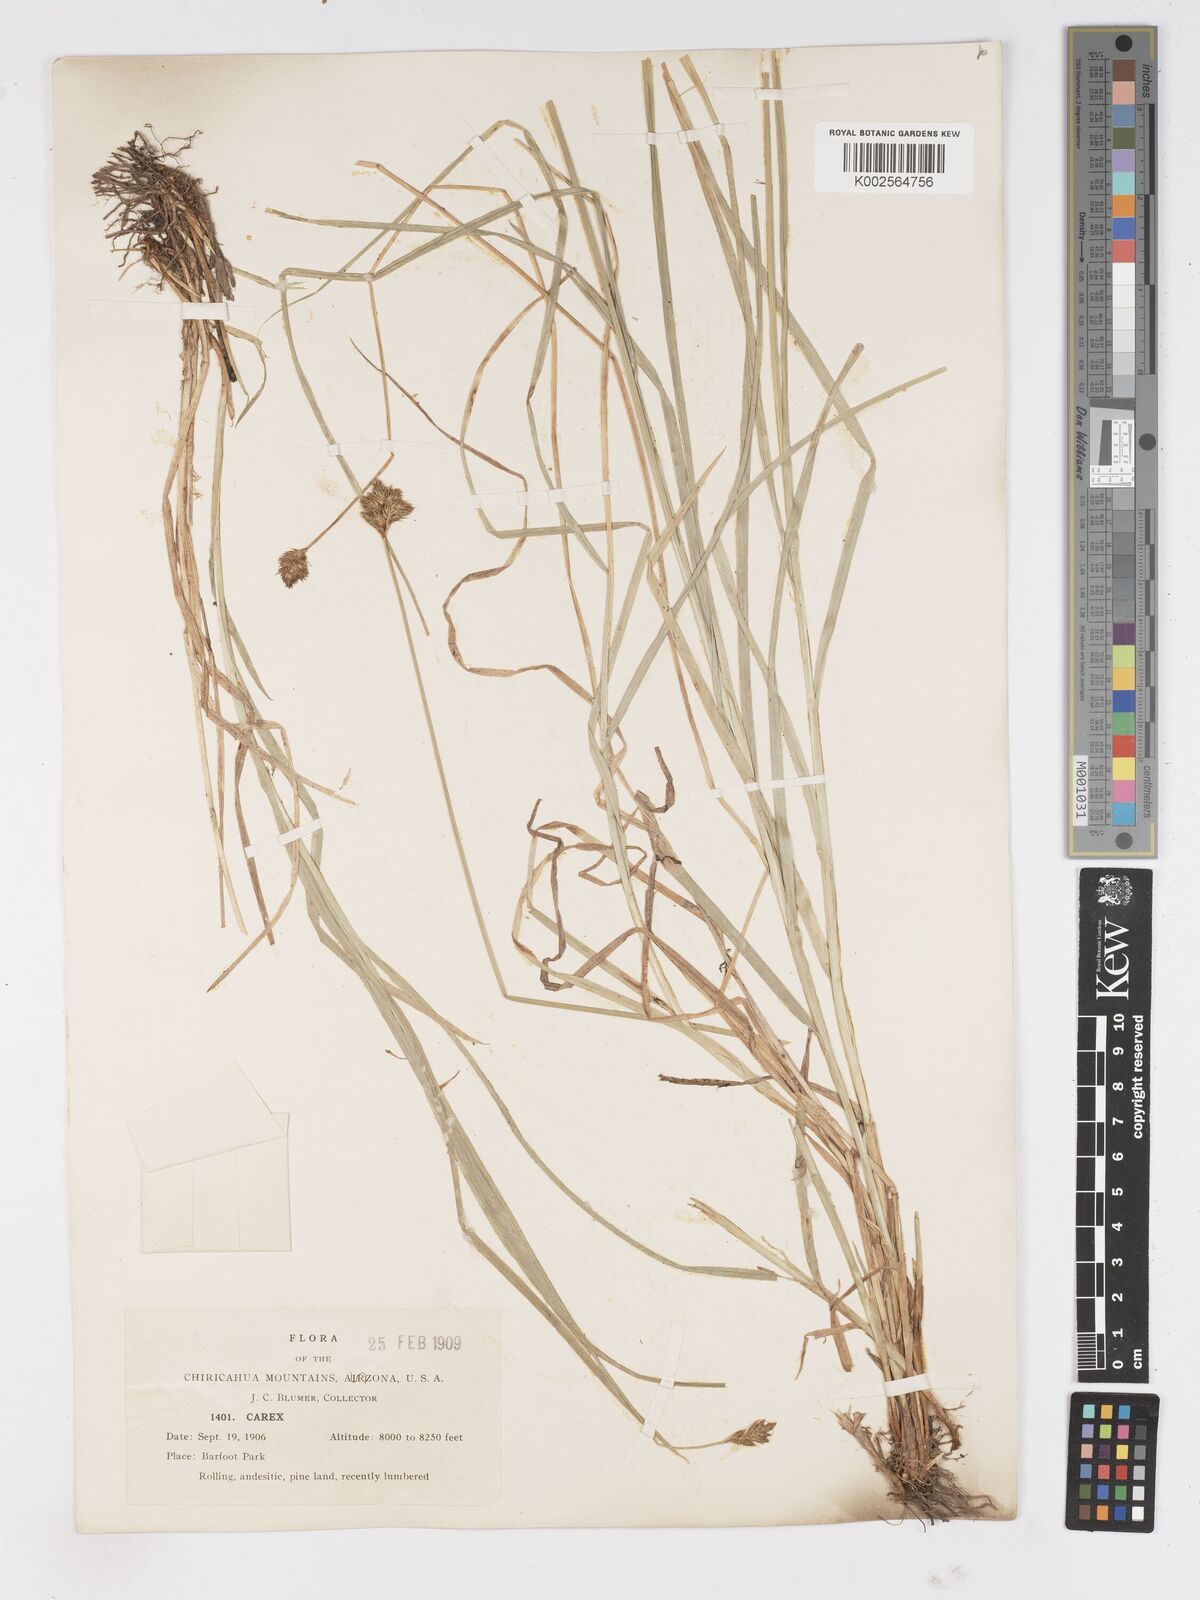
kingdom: Plantae
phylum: Tracheophyta
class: Liliopsida
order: Poales
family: Cyperaceae
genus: Carex
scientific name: Carex
